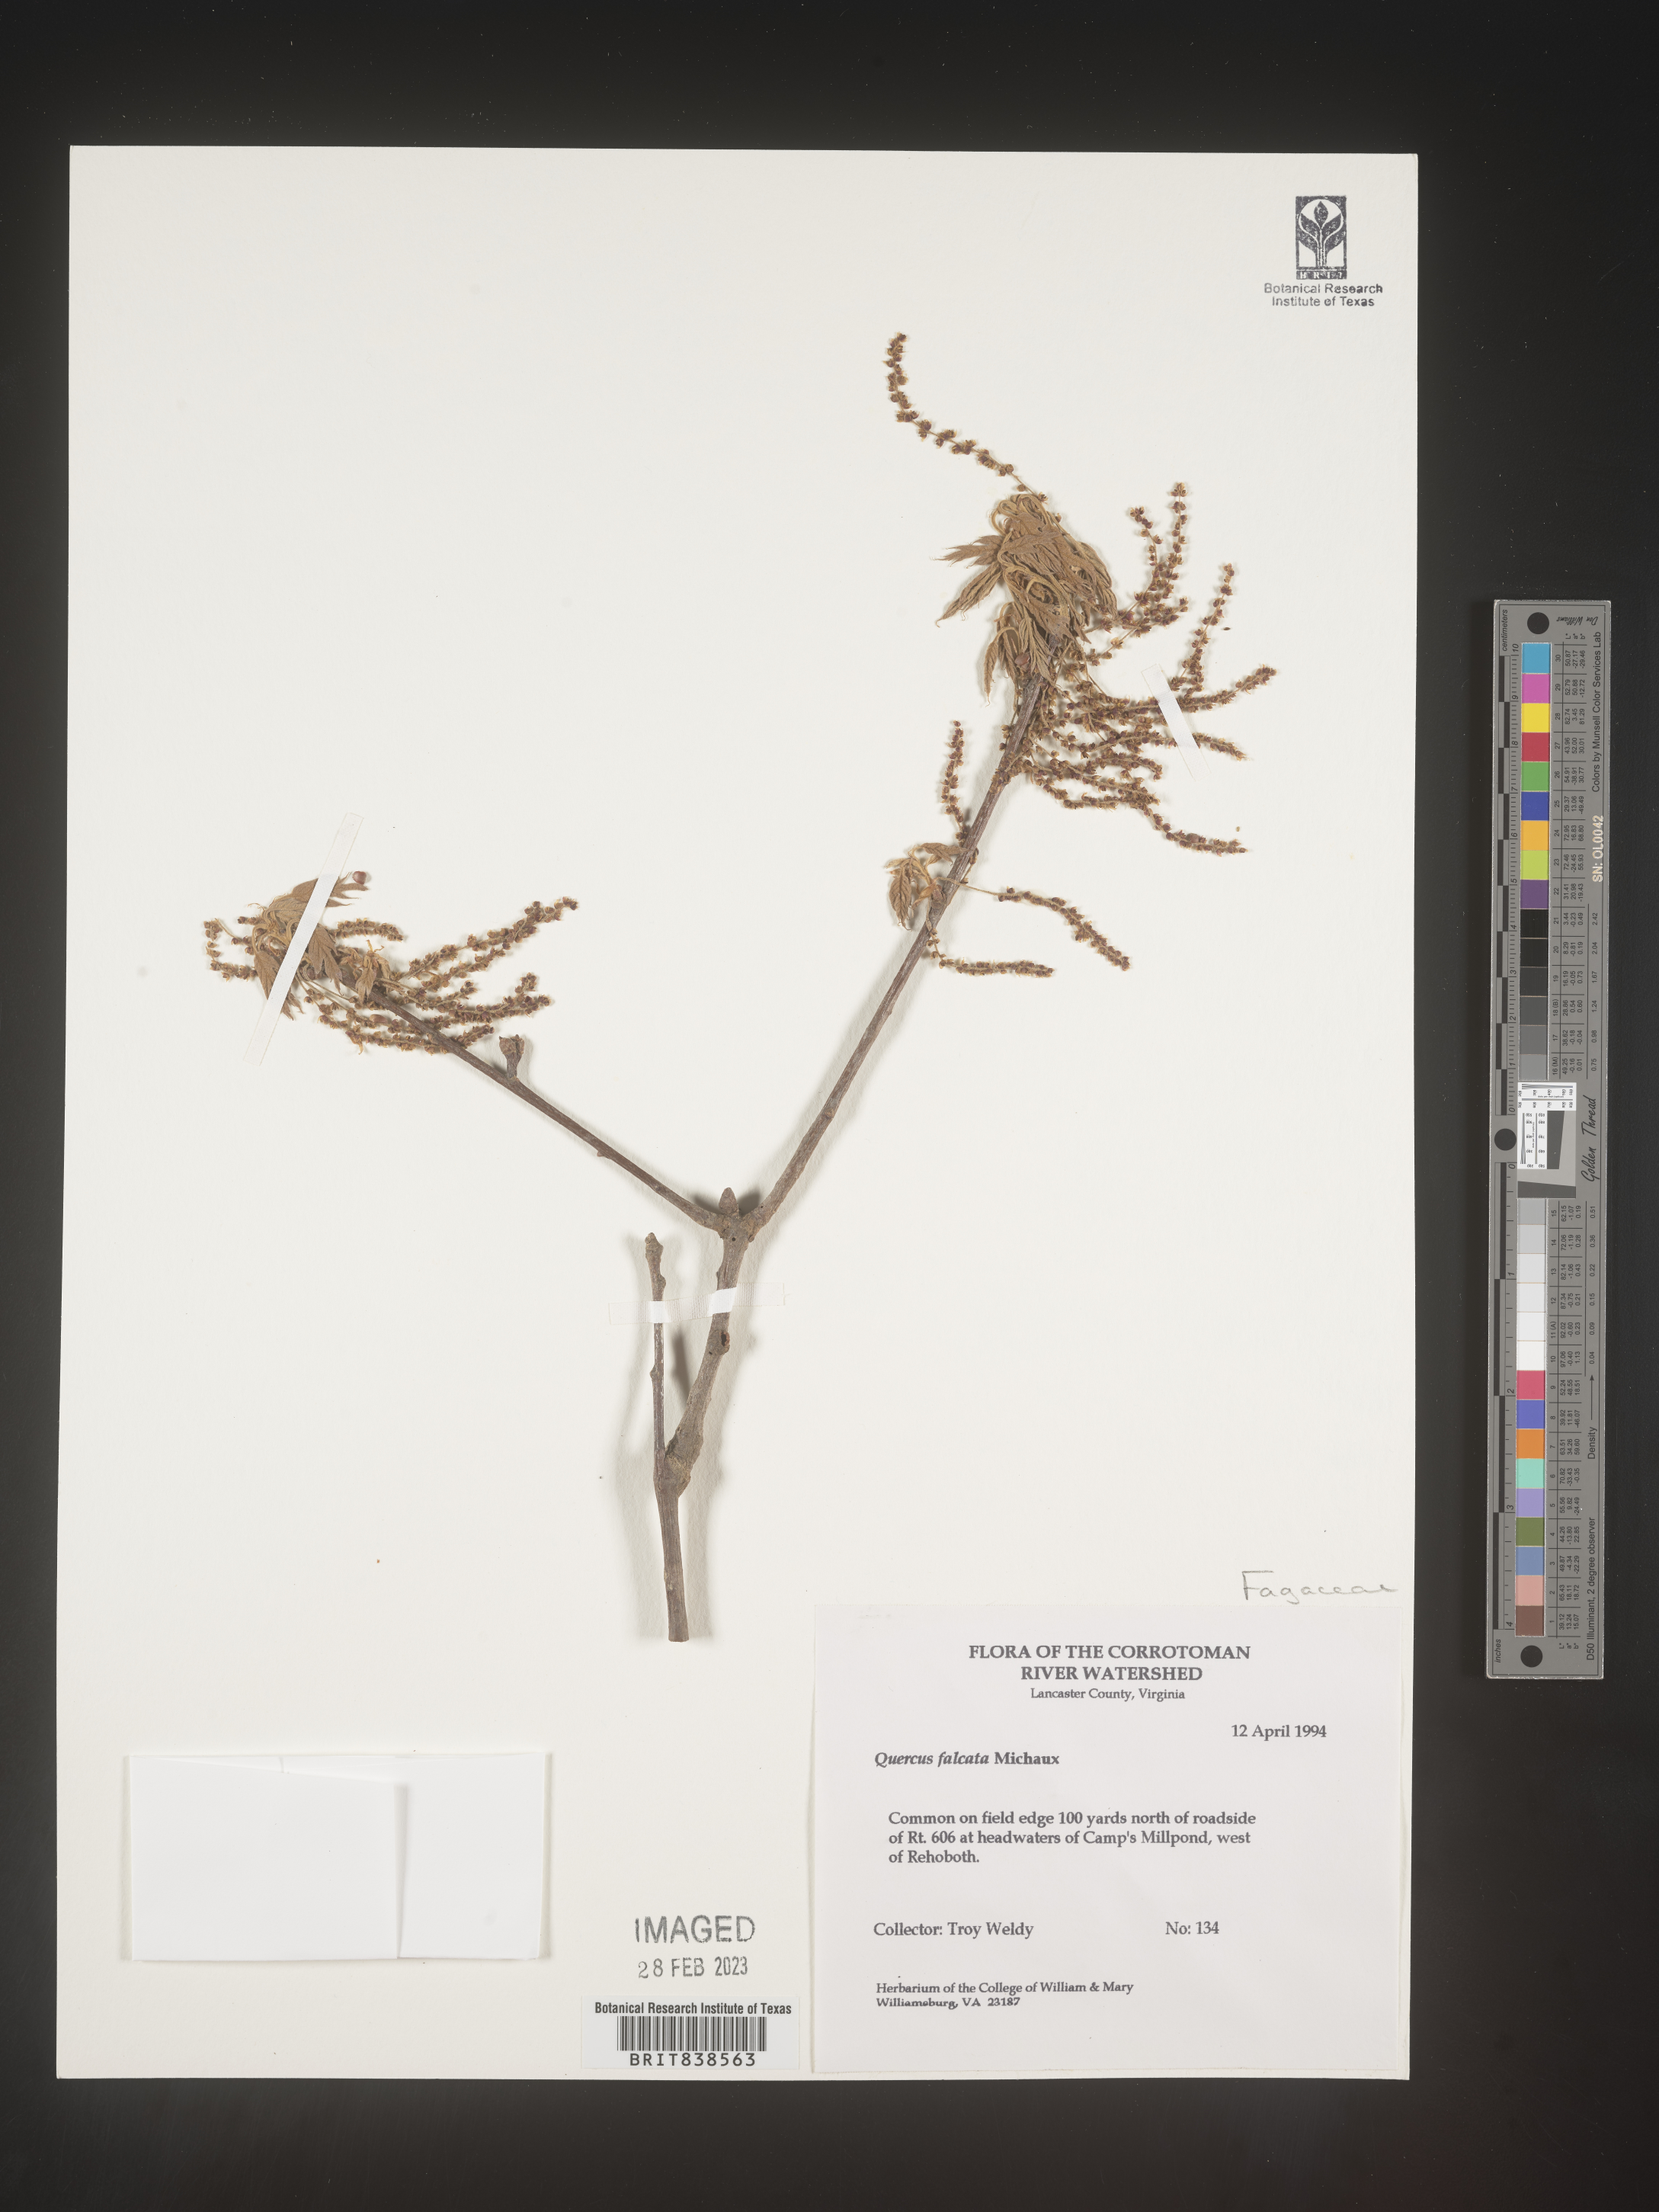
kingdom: Plantae
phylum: Tracheophyta
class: Magnoliopsida
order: Fagales
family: Fagaceae
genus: Quercus
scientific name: Quercus falcata
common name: Southern red oak
